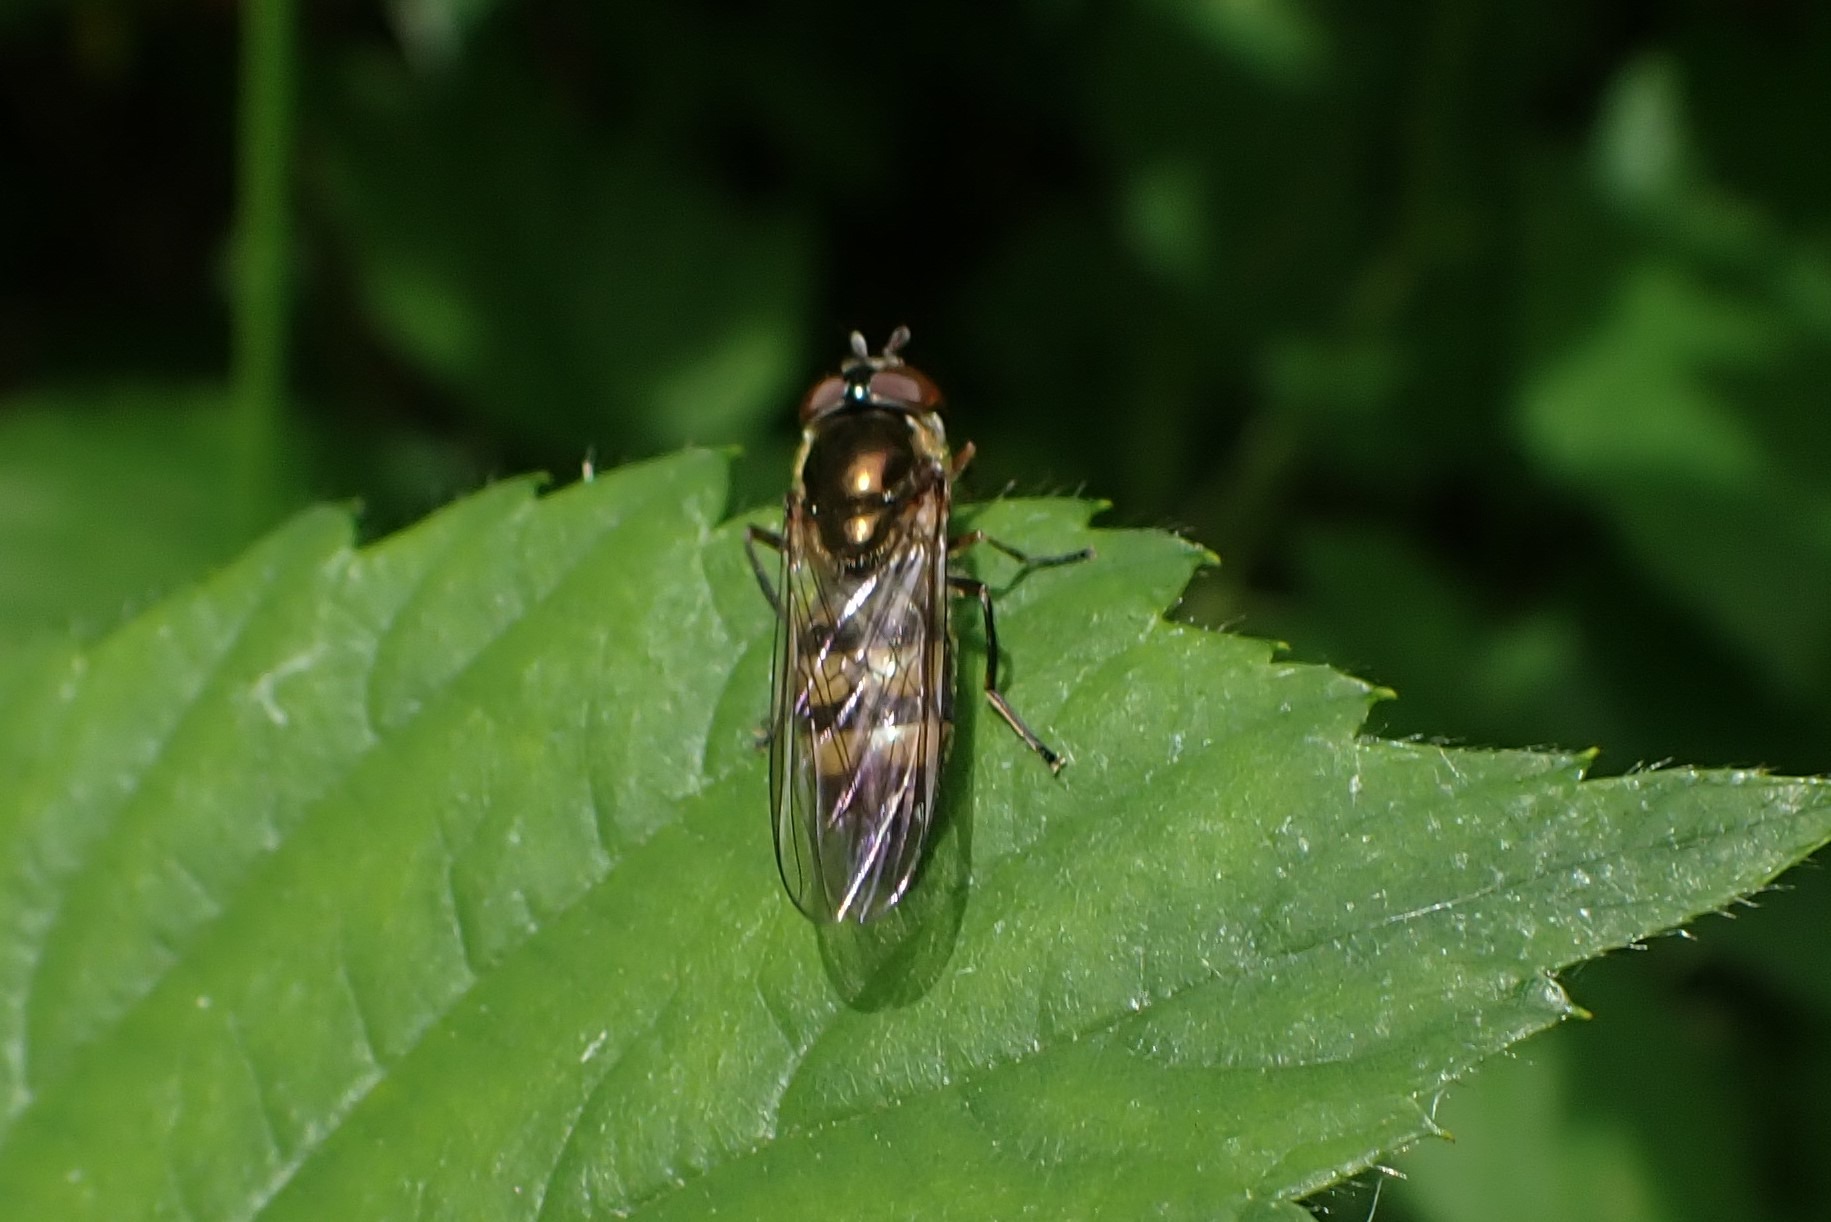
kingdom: Animalia
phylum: Arthropoda
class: Insecta
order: Diptera
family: Syrphidae
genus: Xanthandrus
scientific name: Xanthandrus comtus
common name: Gulhannet svirreflue
